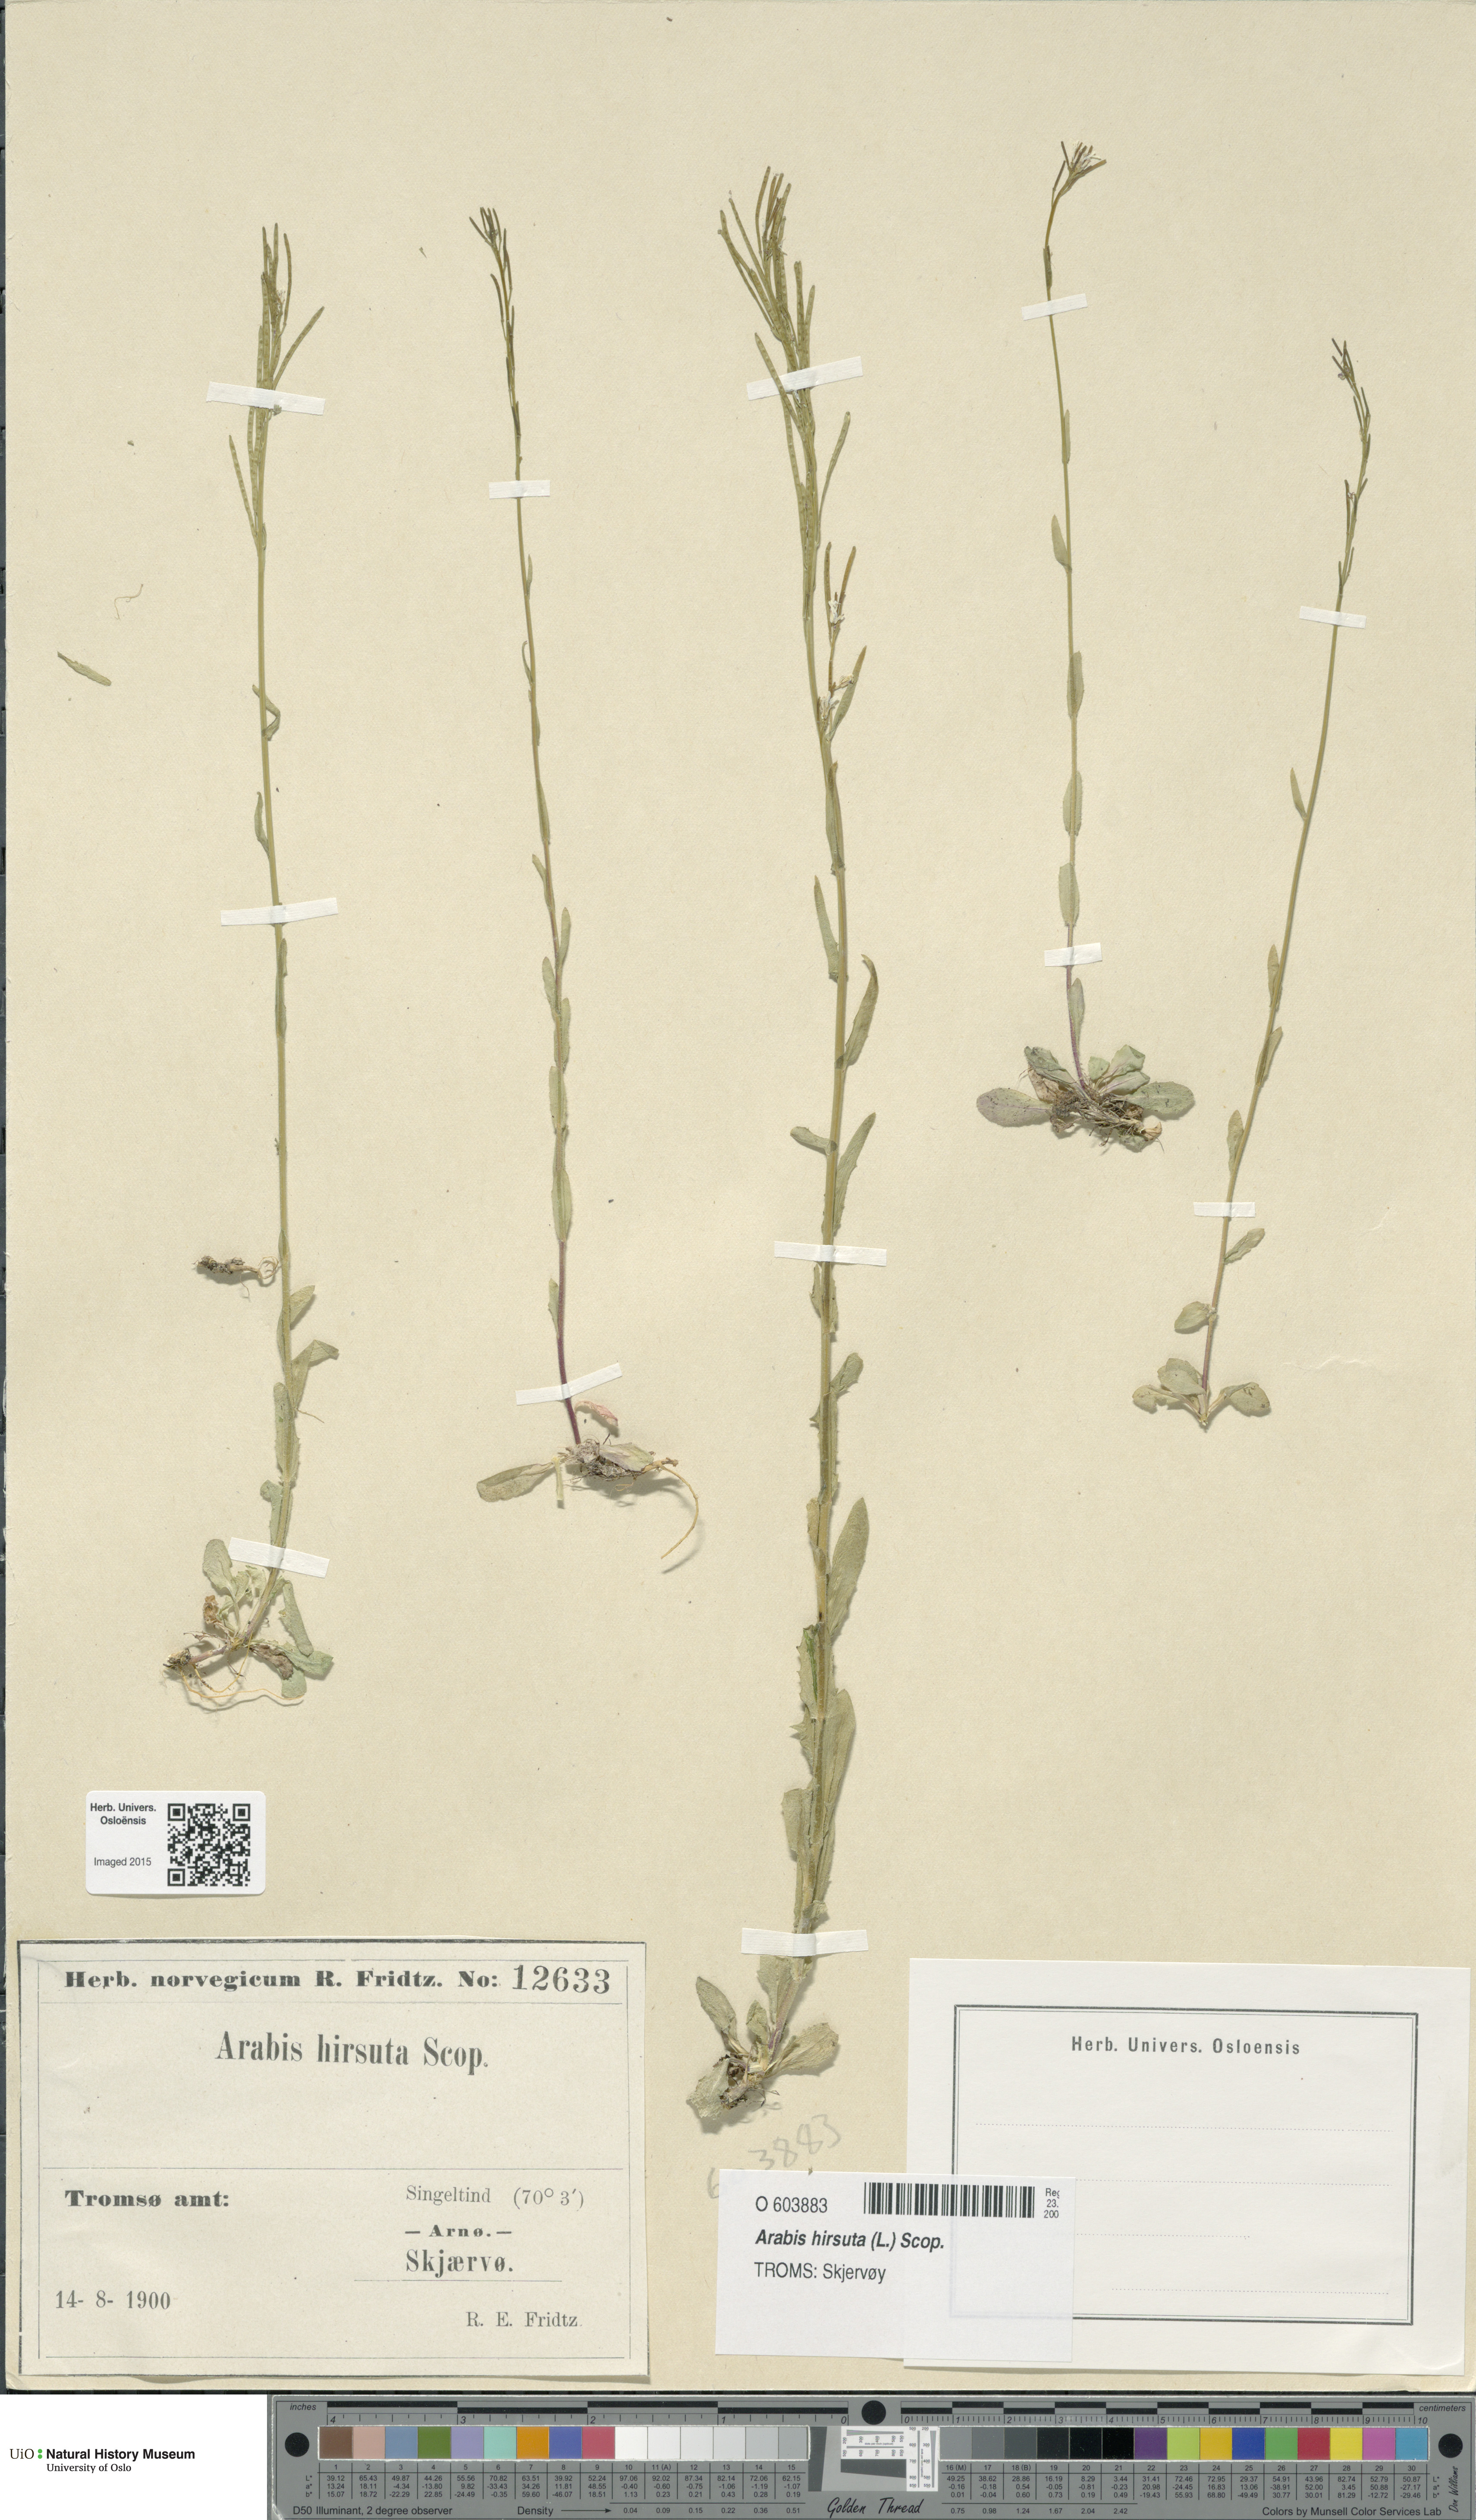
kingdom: Plantae
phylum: Tracheophyta
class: Magnoliopsida
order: Brassicales
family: Brassicaceae
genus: Arabis
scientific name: Arabis hirsuta
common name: Hairy rock-cress
